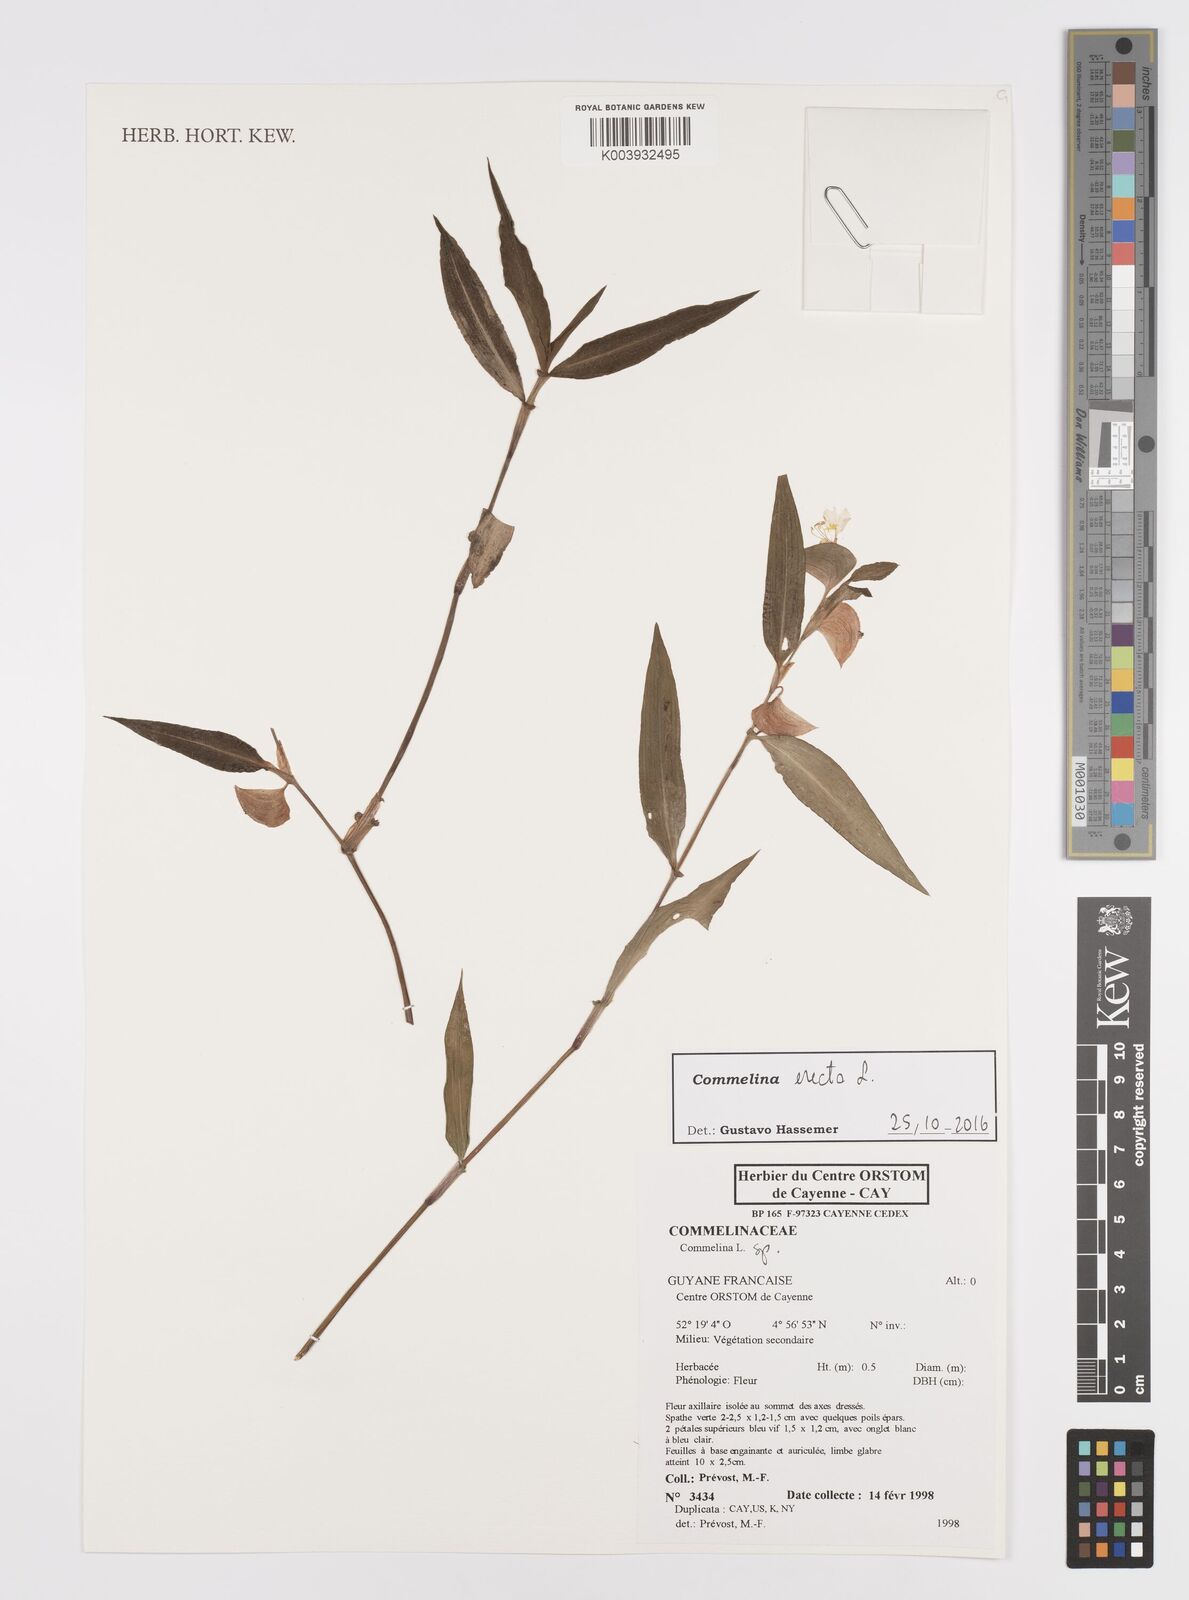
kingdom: Plantae
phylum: Tracheophyta
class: Liliopsida
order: Commelinales
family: Commelinaceae
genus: Commelina
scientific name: Commelina erecta
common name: Blousel blommetjie
